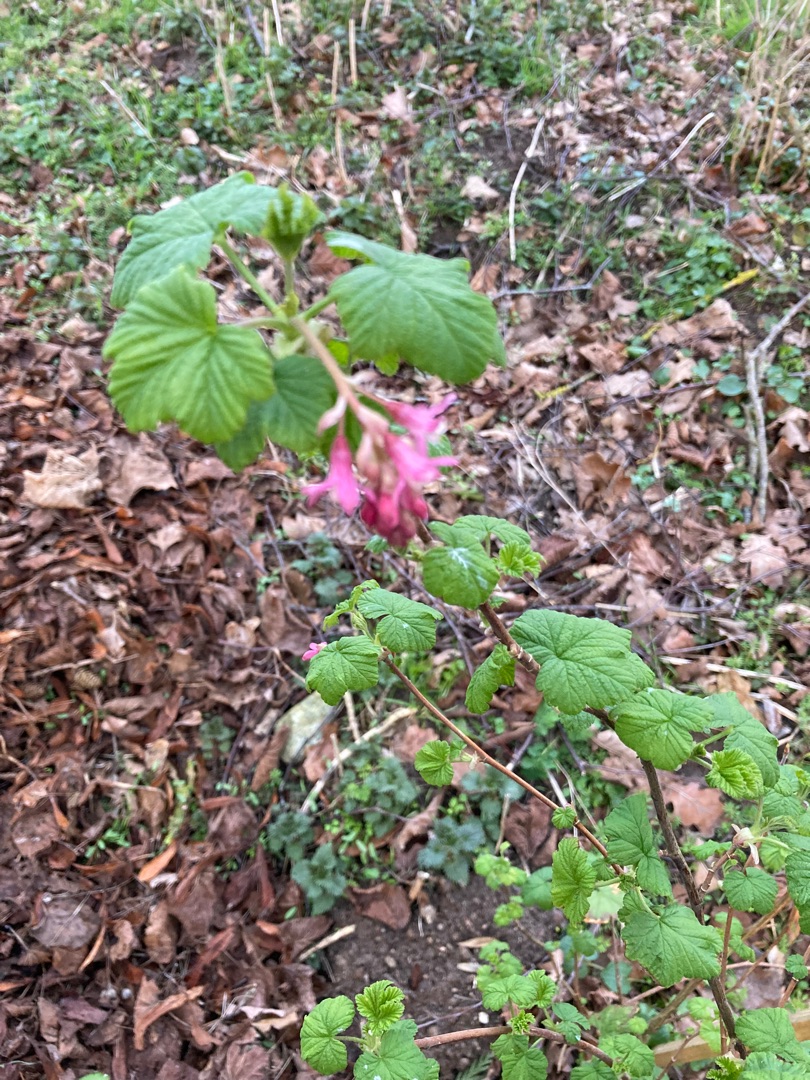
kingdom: Plantae
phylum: Tracheophyta
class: Magnoliopsida
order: Saxifragales
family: Grossulariaceae
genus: Ribes
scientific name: Ribes sanguineum
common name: Blod-ribs
